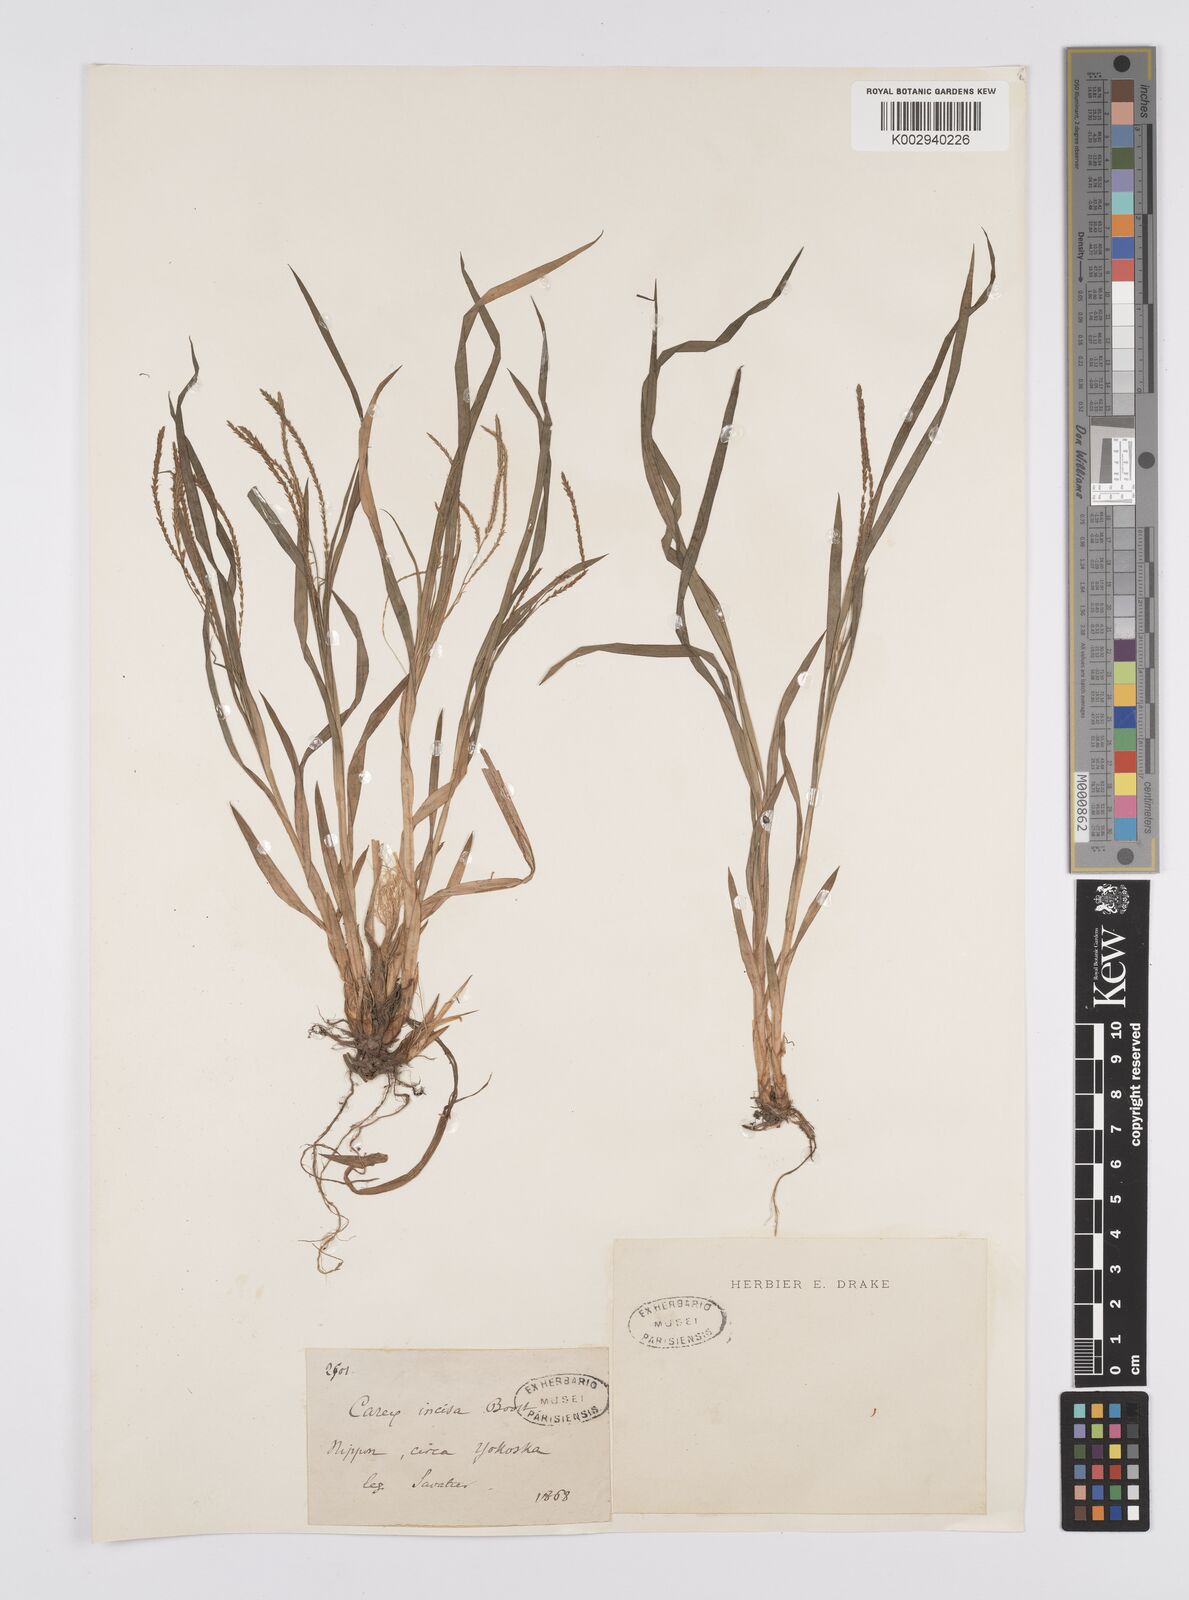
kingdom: Plantae
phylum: Tracheophyta
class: Liliopsida
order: Poales
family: Cyperaceae
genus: Carex
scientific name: Carex incisa
